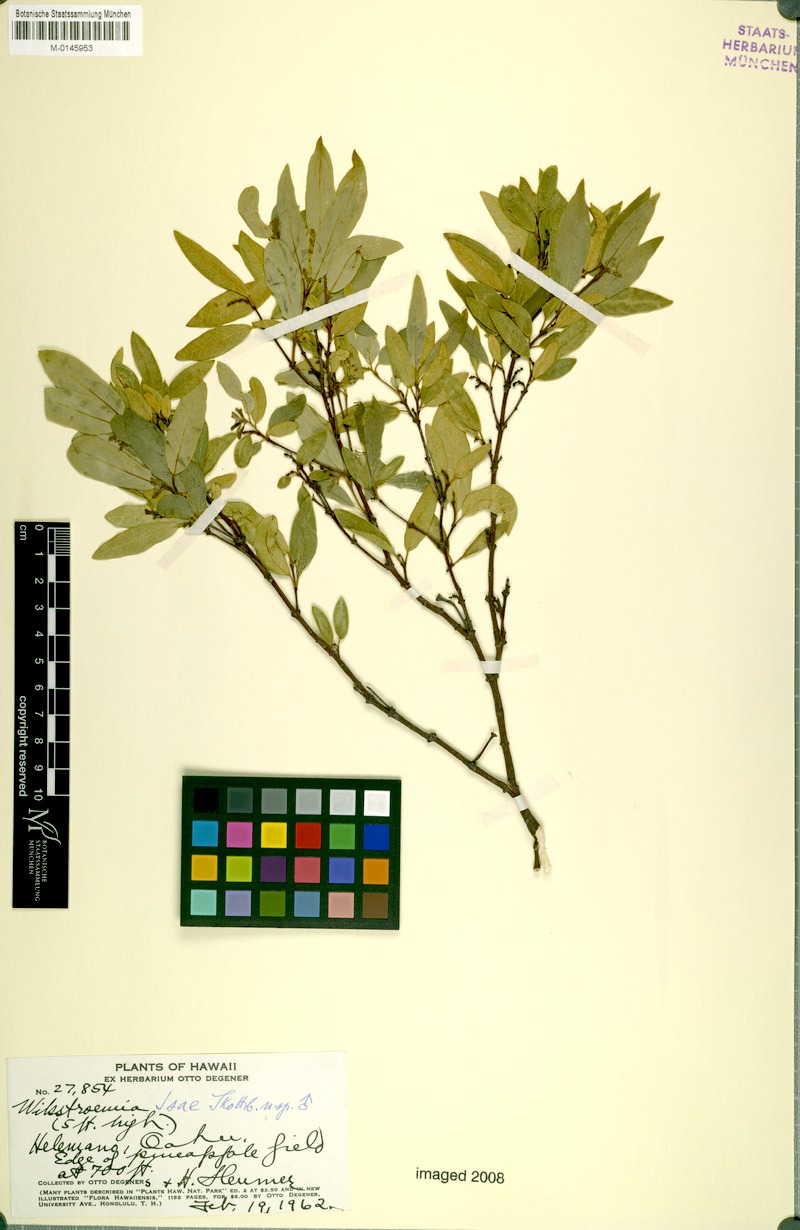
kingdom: Plantae
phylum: Tracheophyta
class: Magnoliopsida
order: Malvales
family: Thymelaeaceae
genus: Wikstroemia
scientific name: Wikstroemia oahuensis
